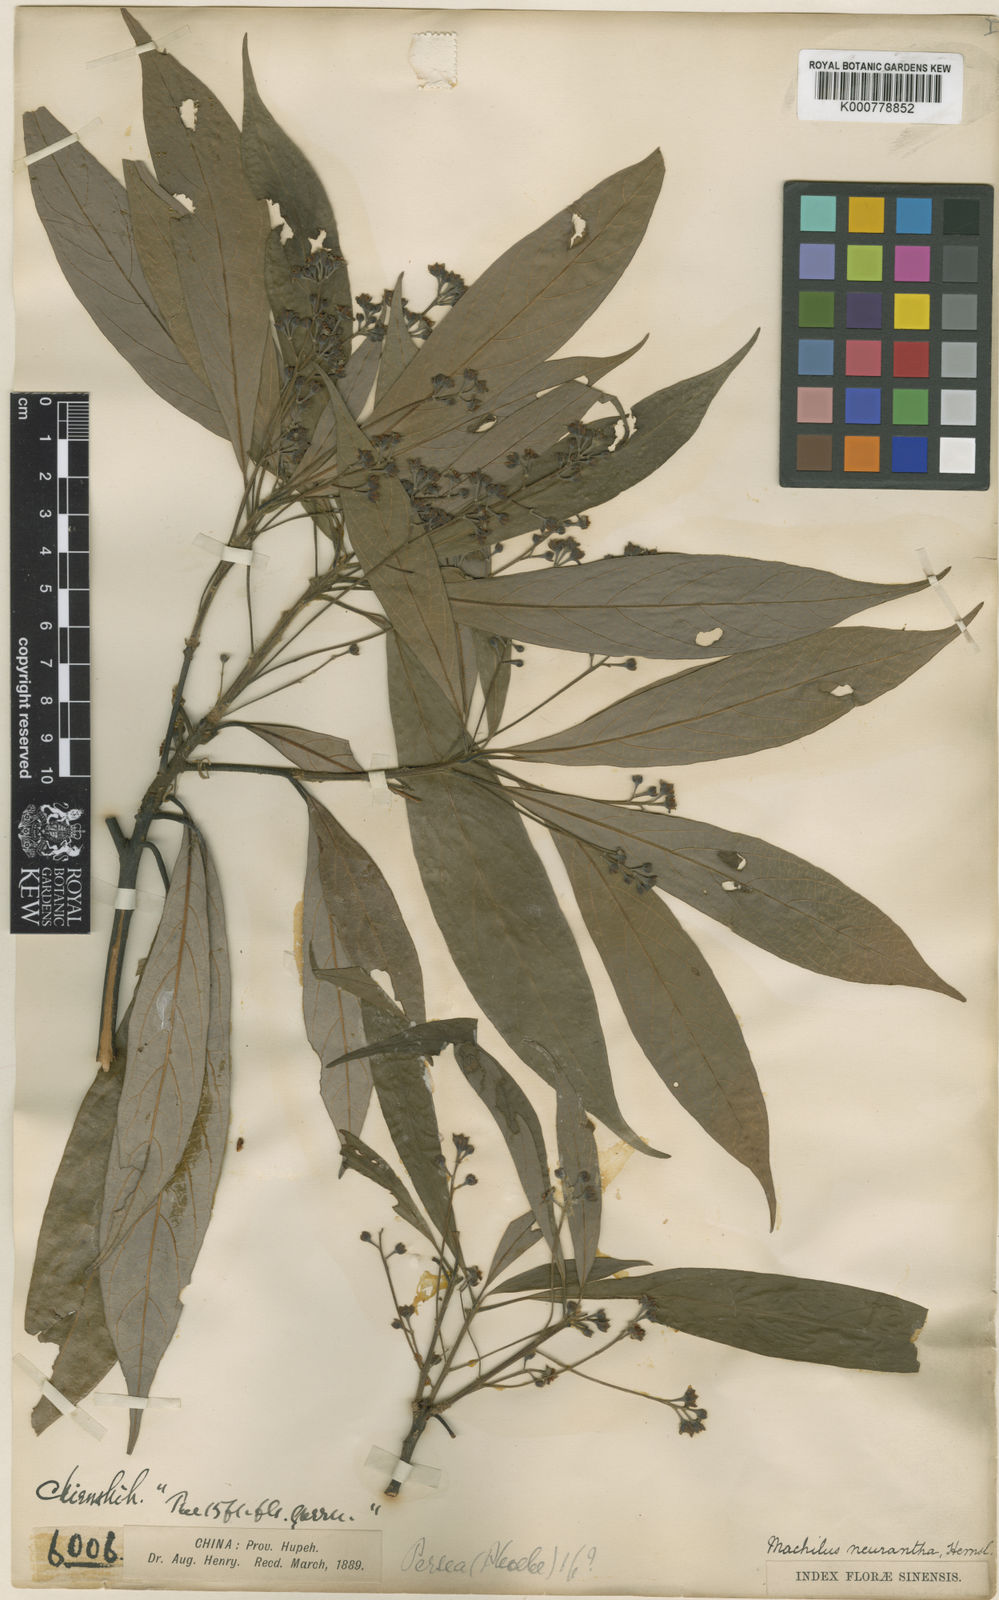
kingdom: Plantae
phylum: Tracheophyta
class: Magnoliopsida
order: Laurales
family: Lauraceae
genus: Phoebe
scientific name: Phoebe neurantha
